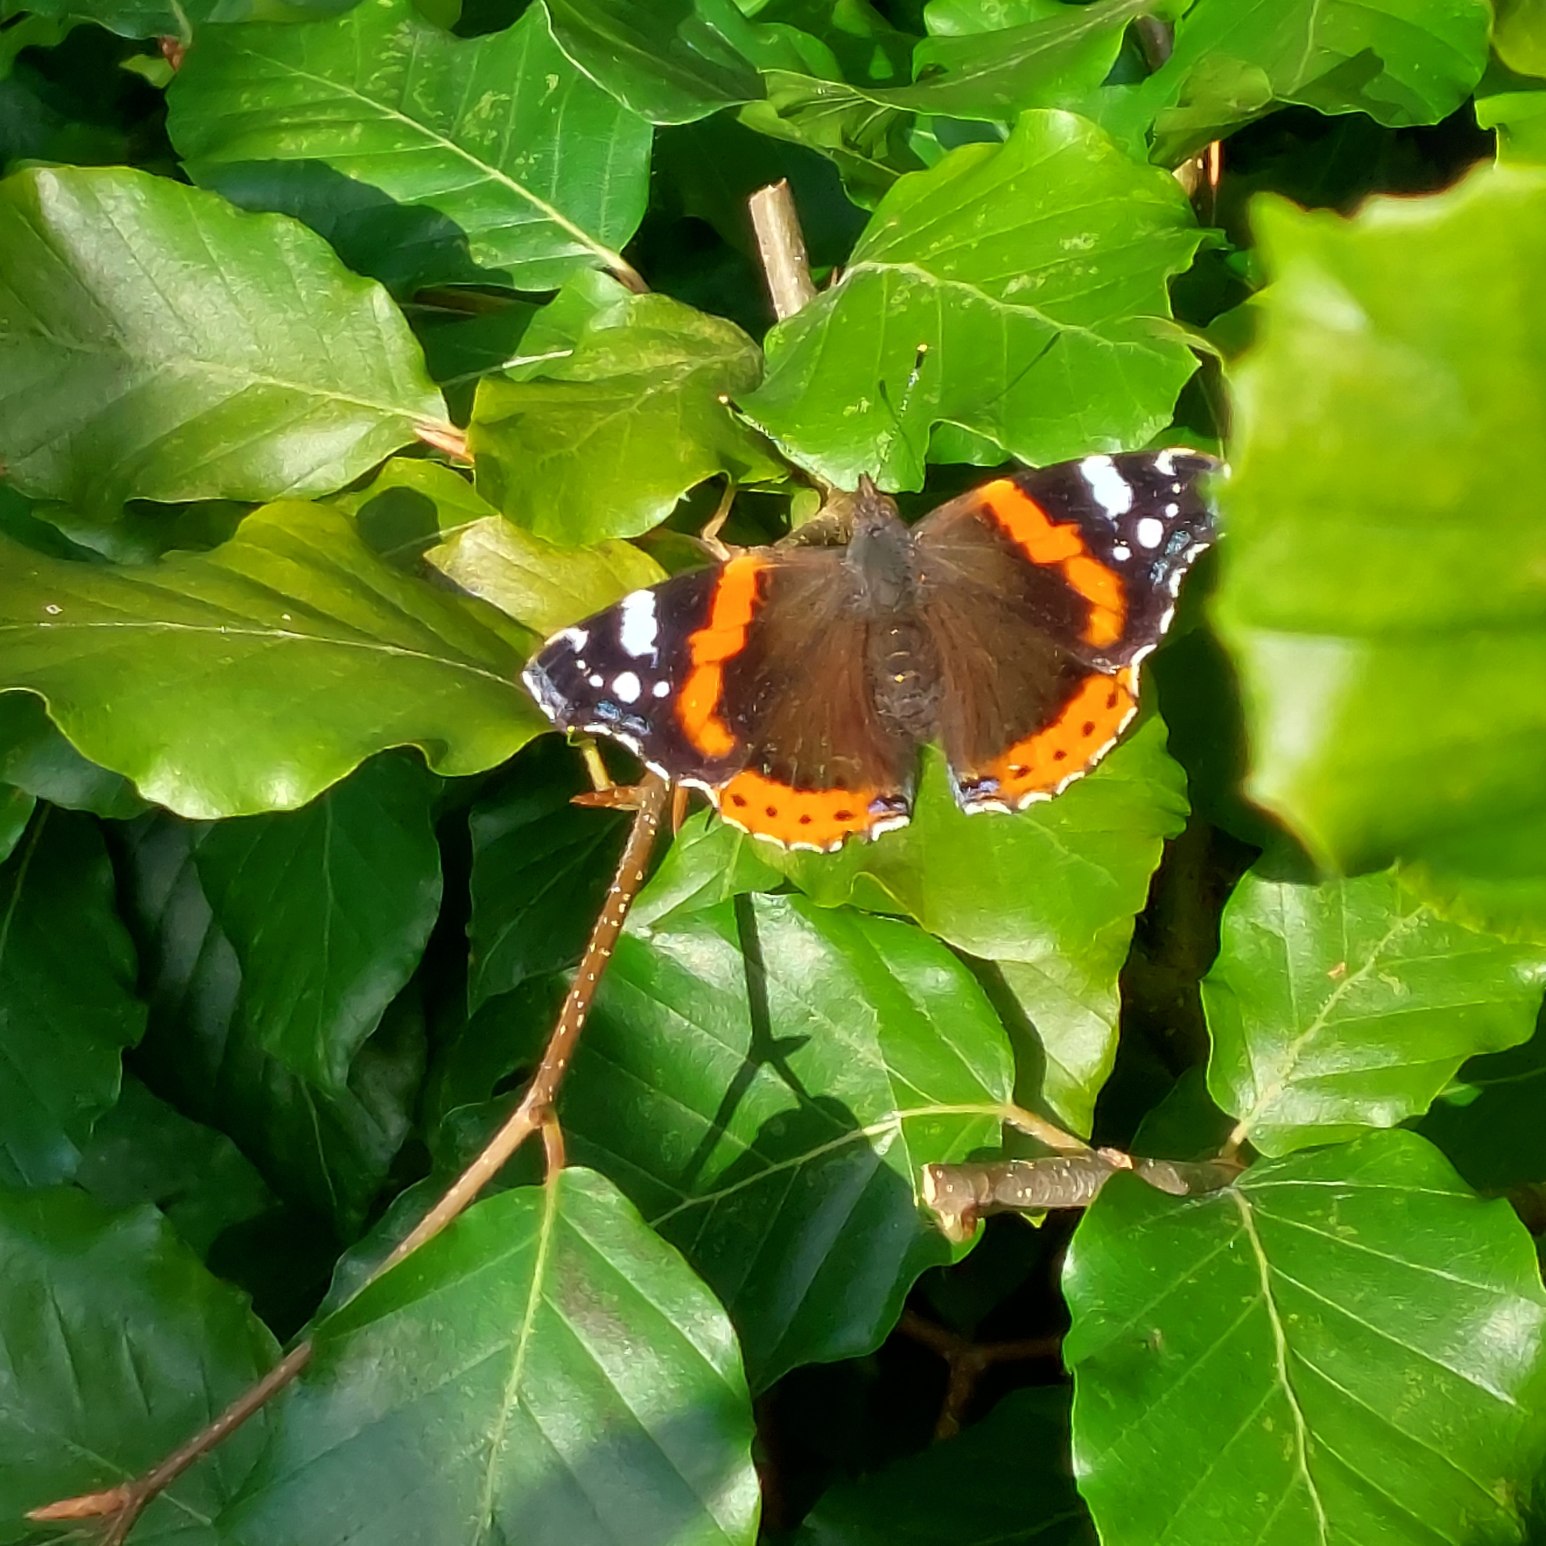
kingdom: Animalia
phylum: Arthropoda
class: Insecta
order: Lepidoptera
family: Nymphalidae
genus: Vanessa
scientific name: Vanessa atalanta
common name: Admiral
